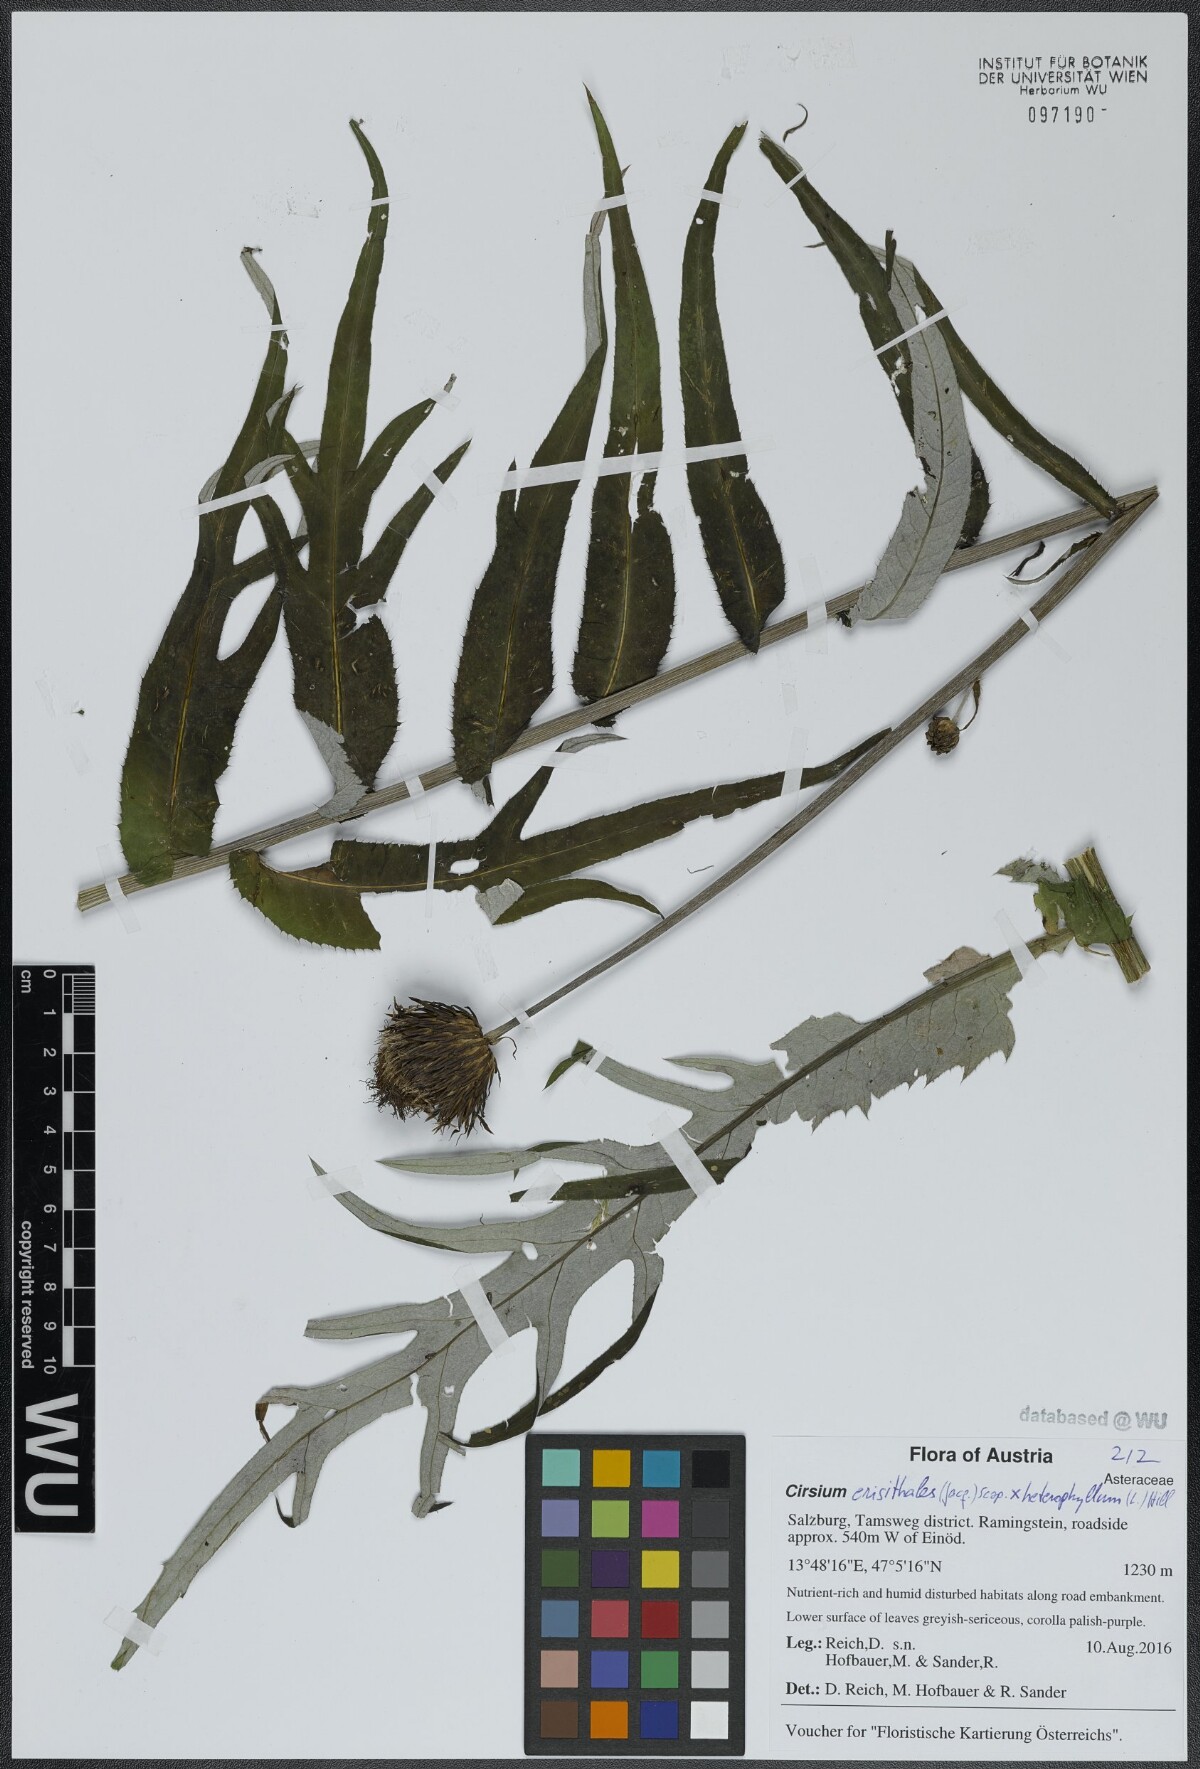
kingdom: Plantae
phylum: Tracheophyta
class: Magnoliopsida
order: Asterales
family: Asteraceae
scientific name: Asteraceae
